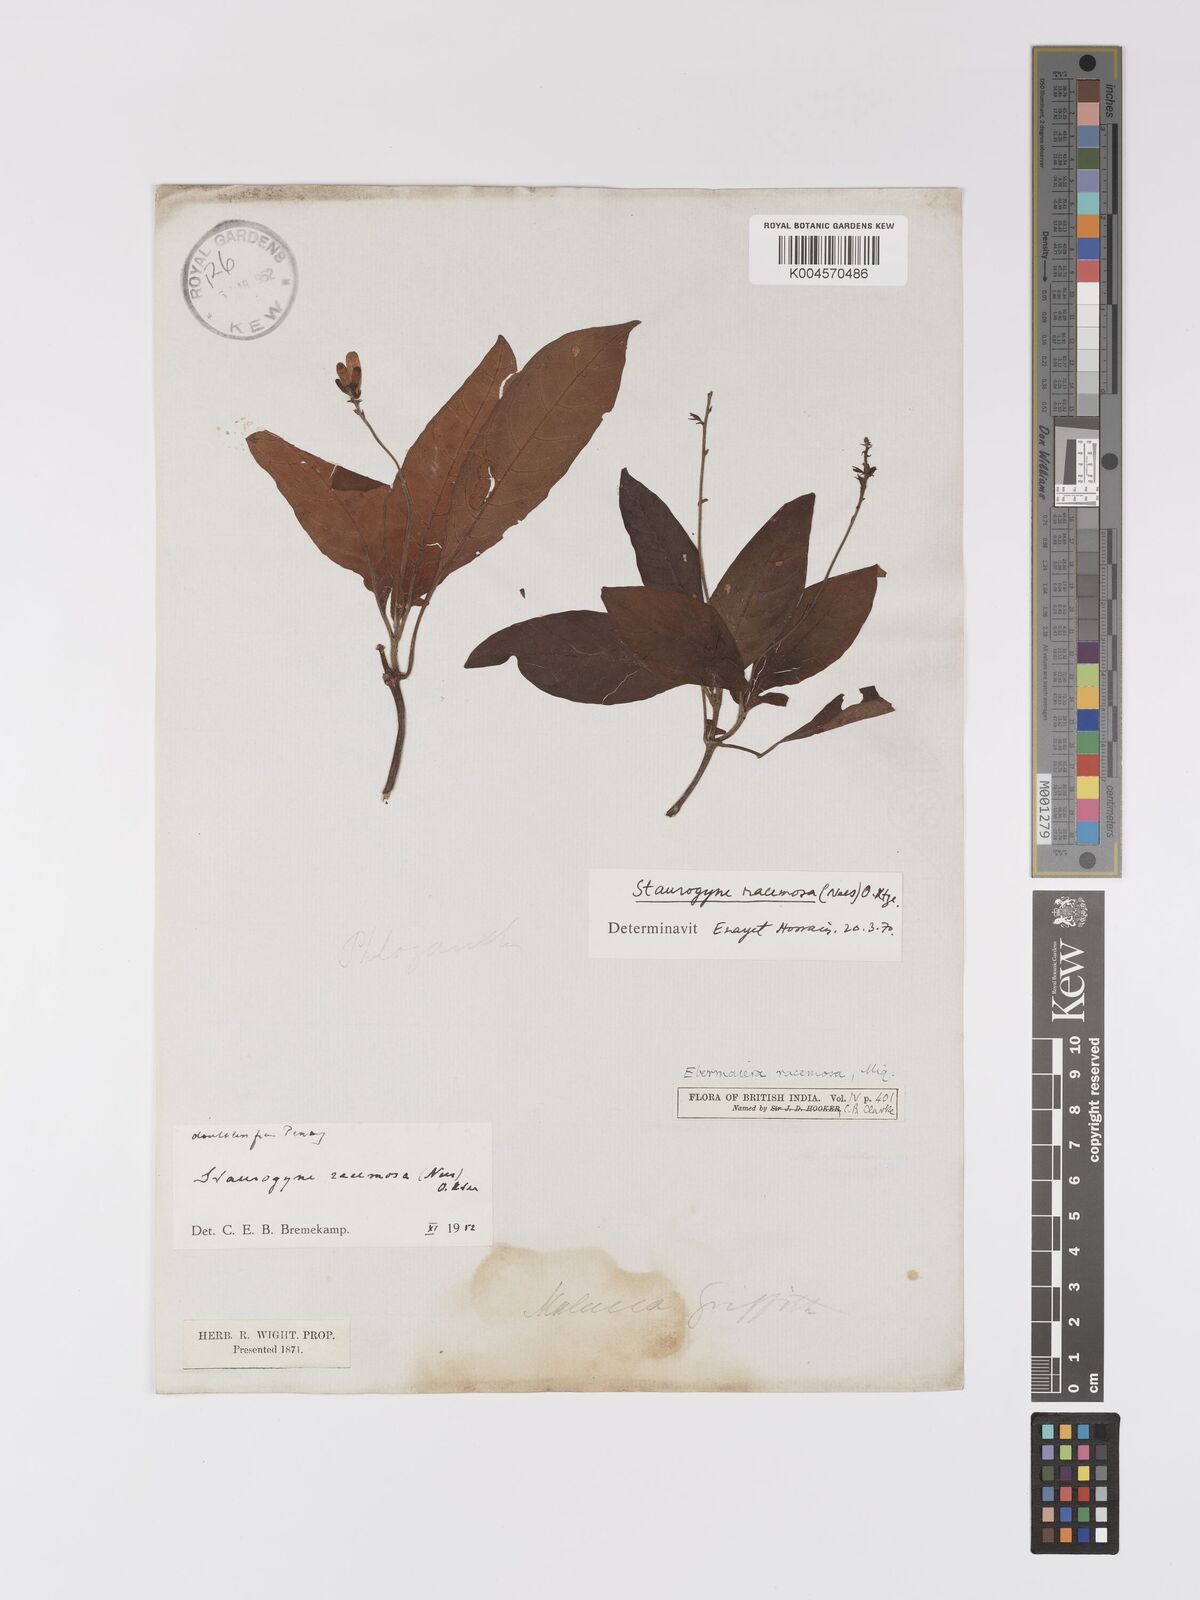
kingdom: Plantae
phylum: Tracheophyta
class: Magnoliopsida
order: Lamiales
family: Acanthaceae
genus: Staurogyne
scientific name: Staurogyne racemosa
